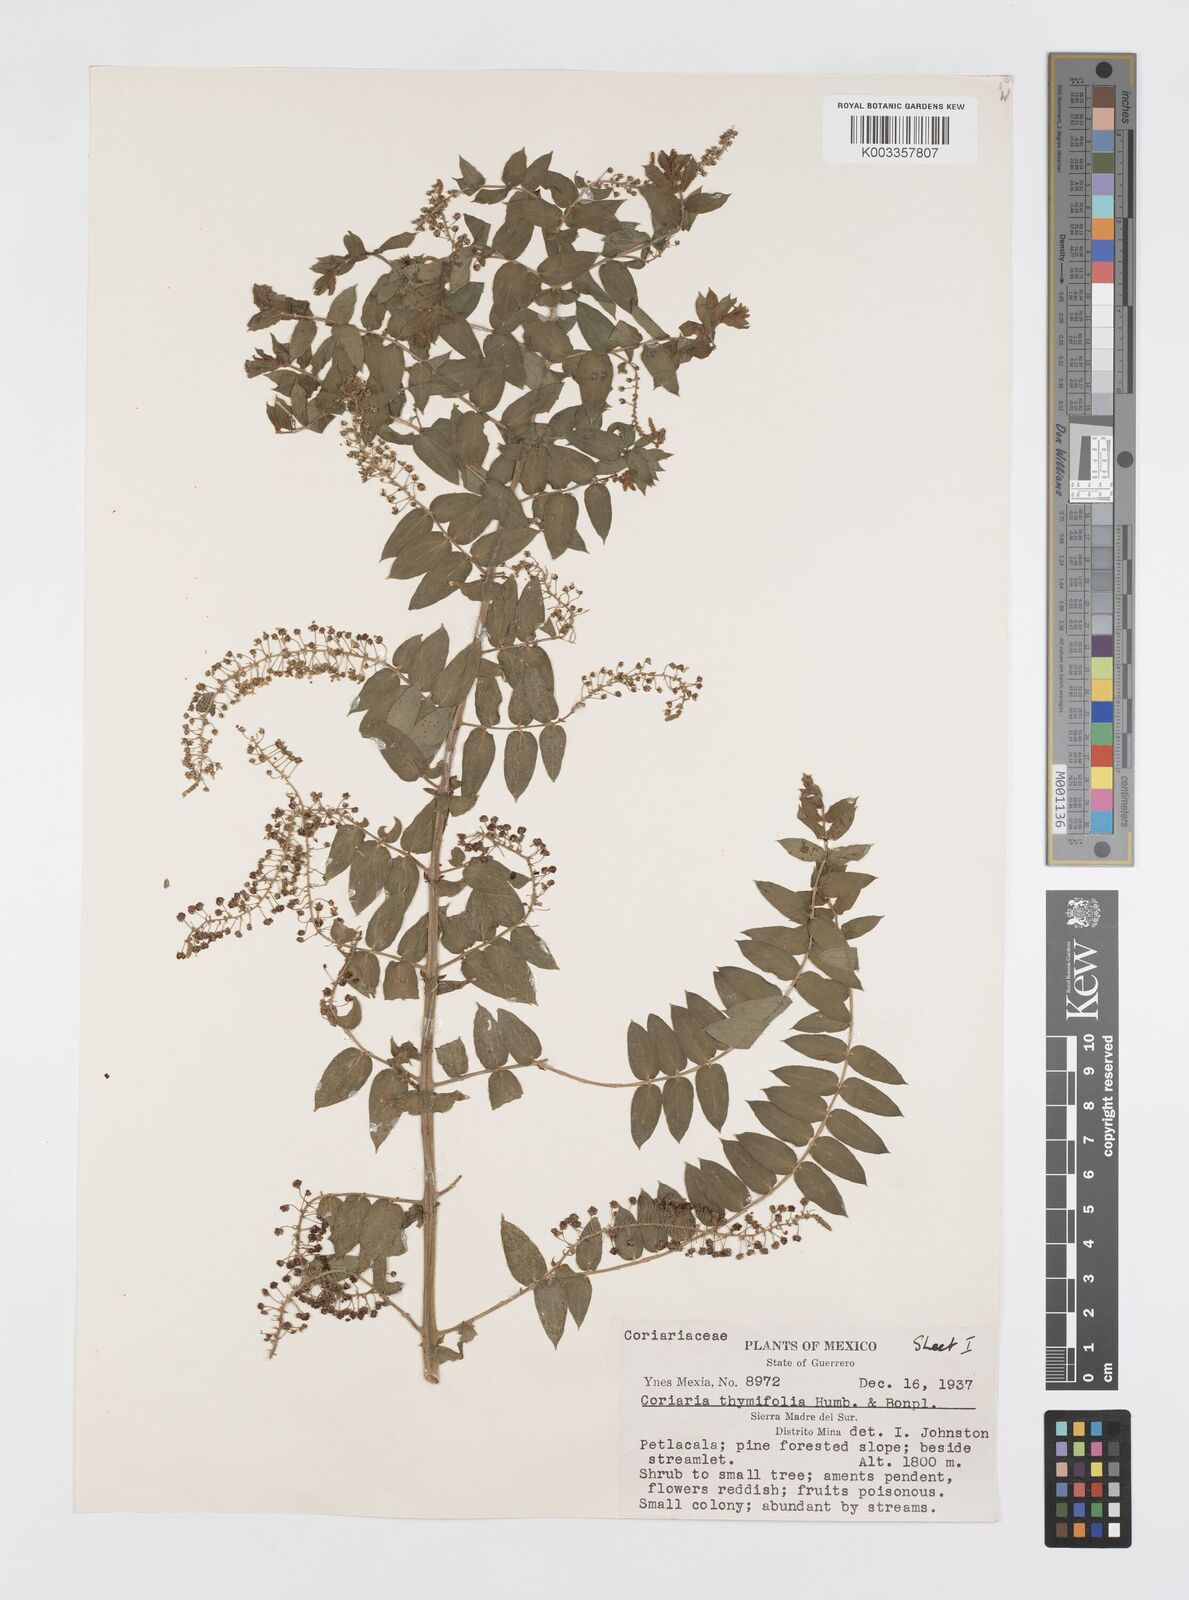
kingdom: Plantae
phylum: Tracheophyta
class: Magnoliopsida
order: Cucurbitales
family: Coriariaceae
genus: Coriaria
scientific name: Coriaria microphylla
